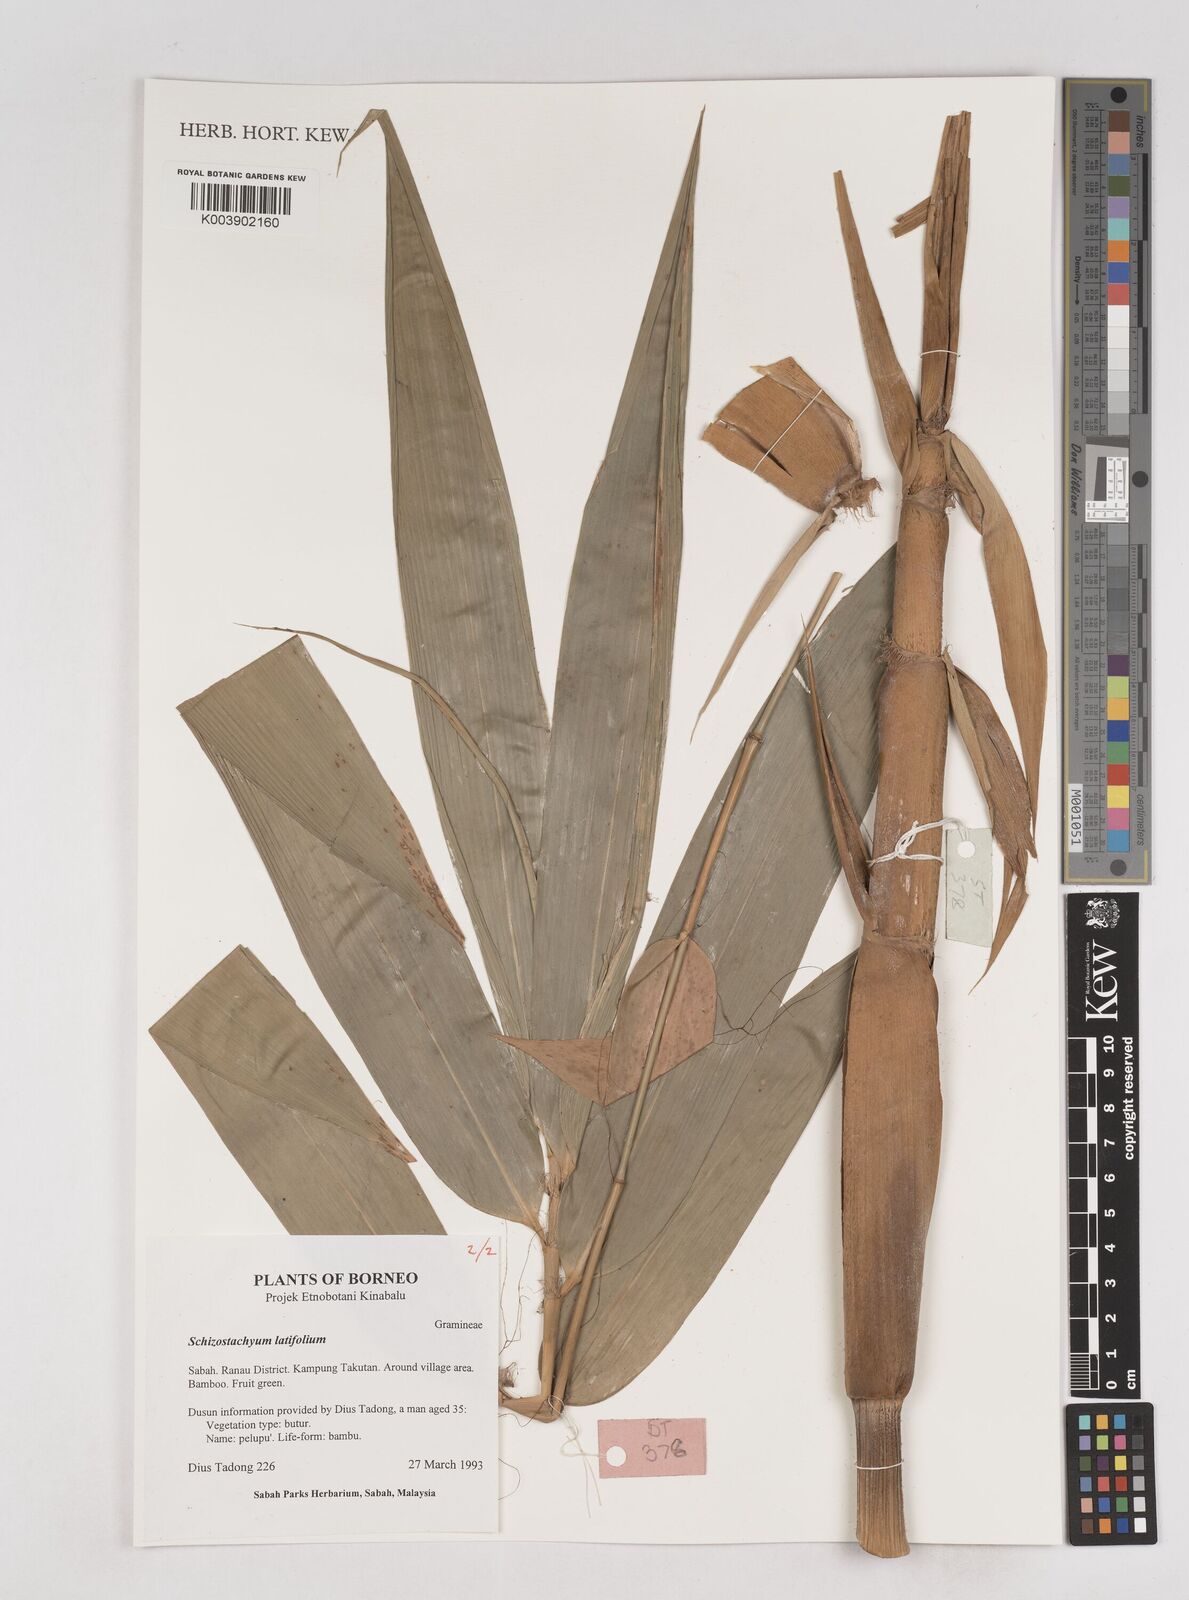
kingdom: Plantae
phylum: Tracheophyta
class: Liliopsida
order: Poales
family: Poaceae
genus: Schizostachyum
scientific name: Schizostachyum latifolium
